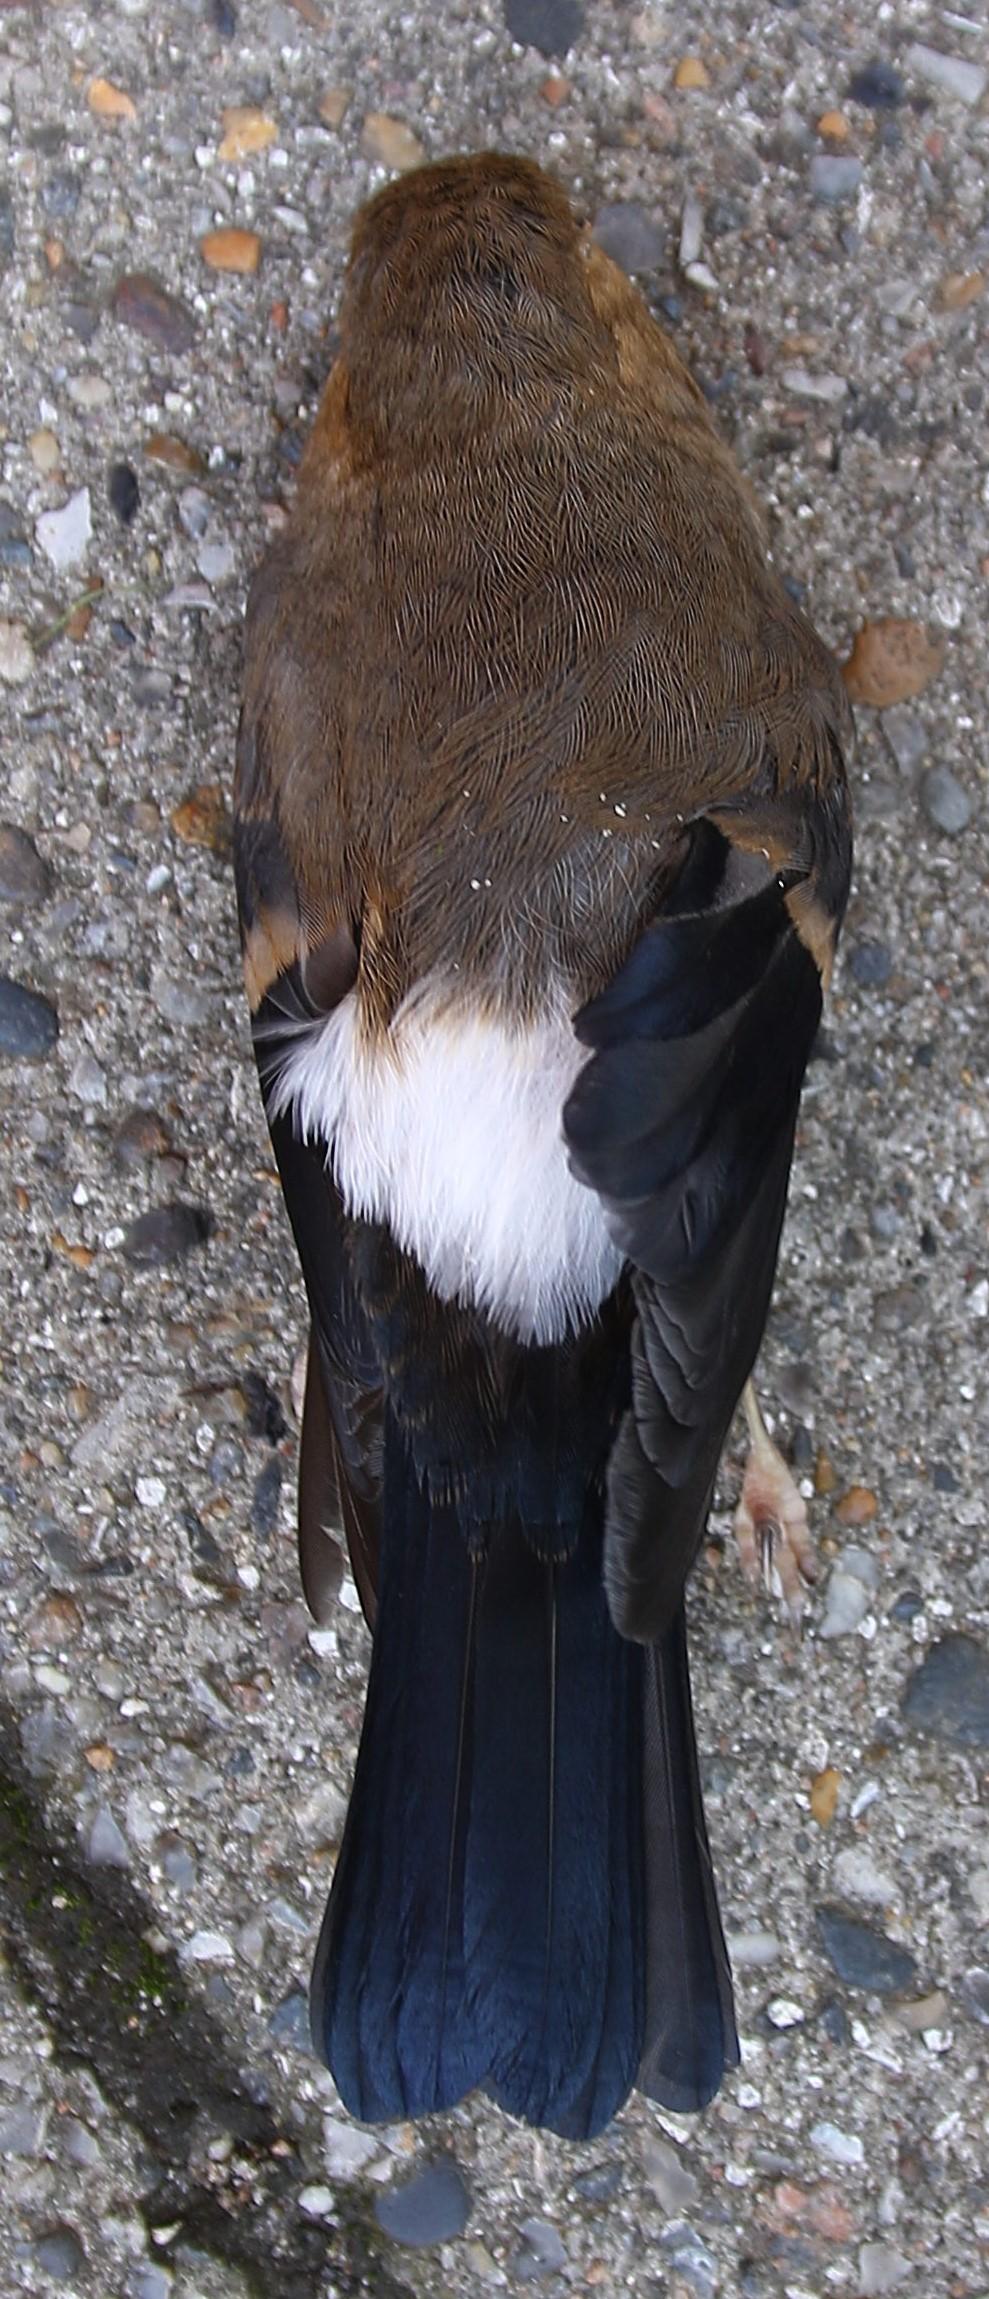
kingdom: Animalia
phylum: Chordata
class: Aves
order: Passeriformes
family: Fringillidae
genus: Pyrrhula
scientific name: Pyrrhula pyrrhula
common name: Dompap
